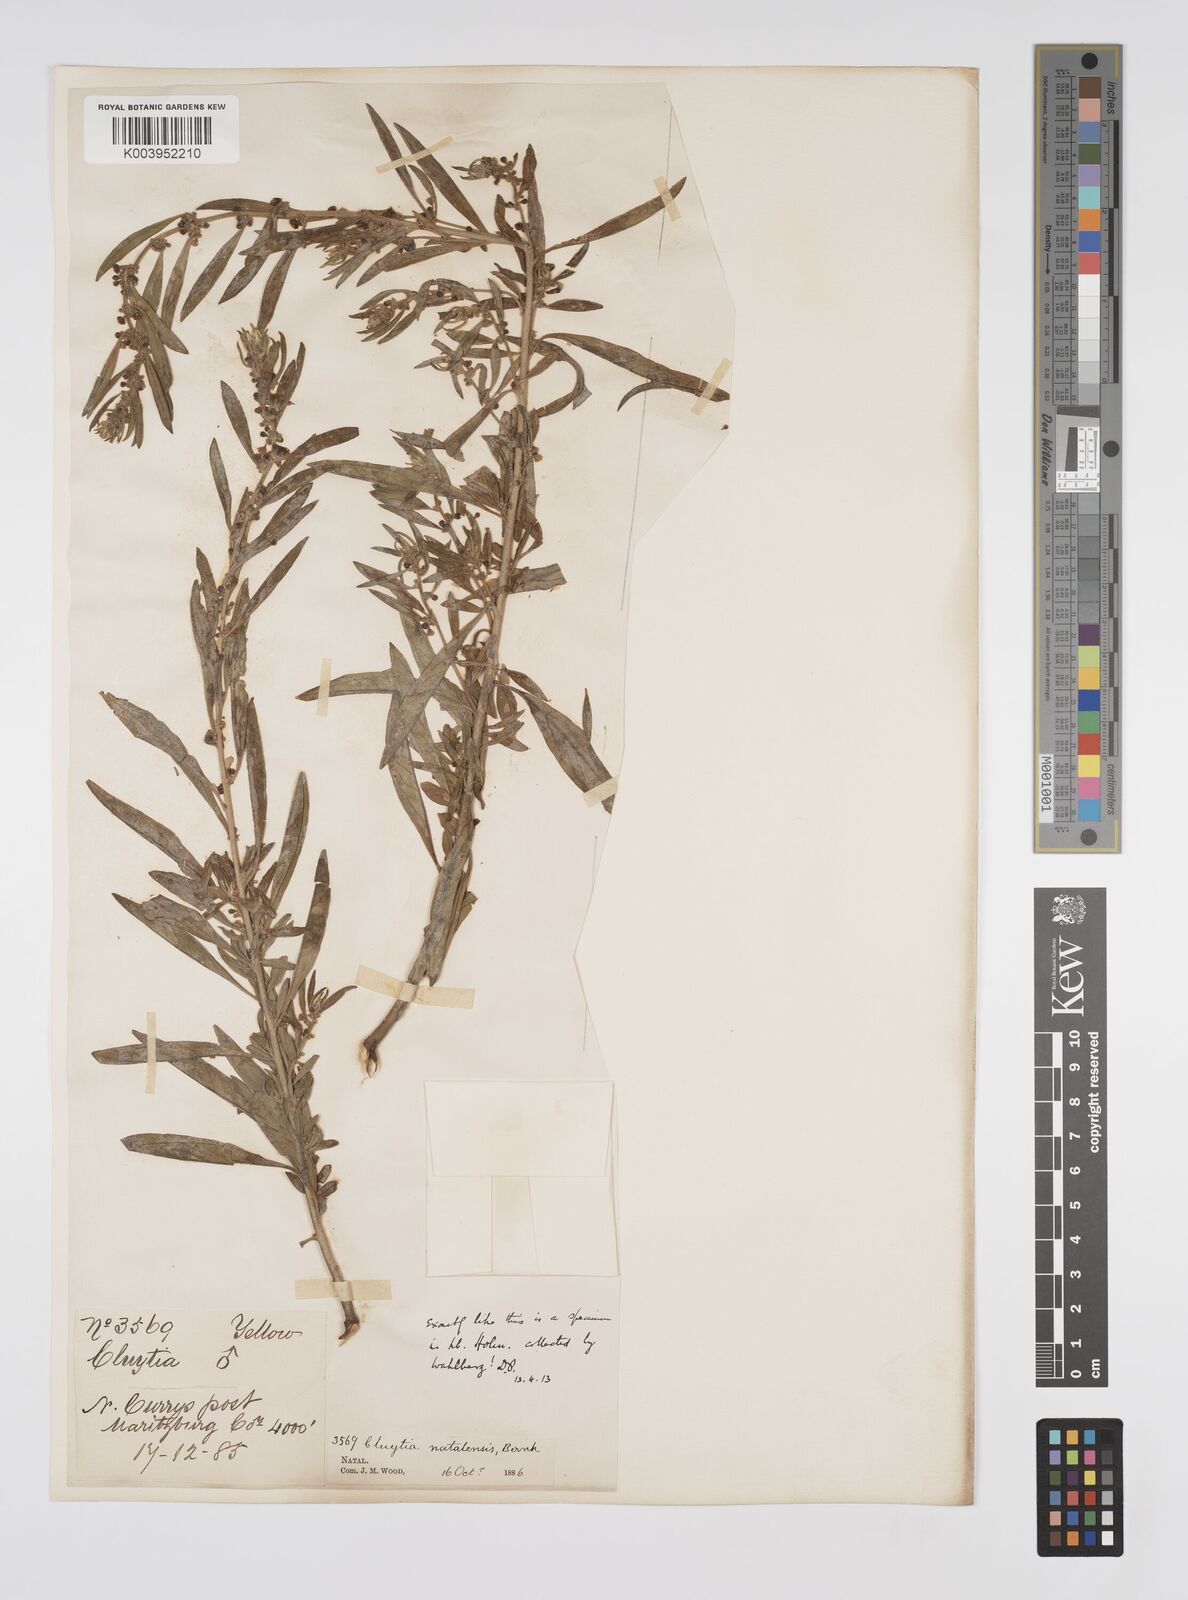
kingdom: Plantae
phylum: Tracheophyta
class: Magnoliopsida
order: Malpighiales
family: Peraceae
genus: Clutia
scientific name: Clutia natalensis
